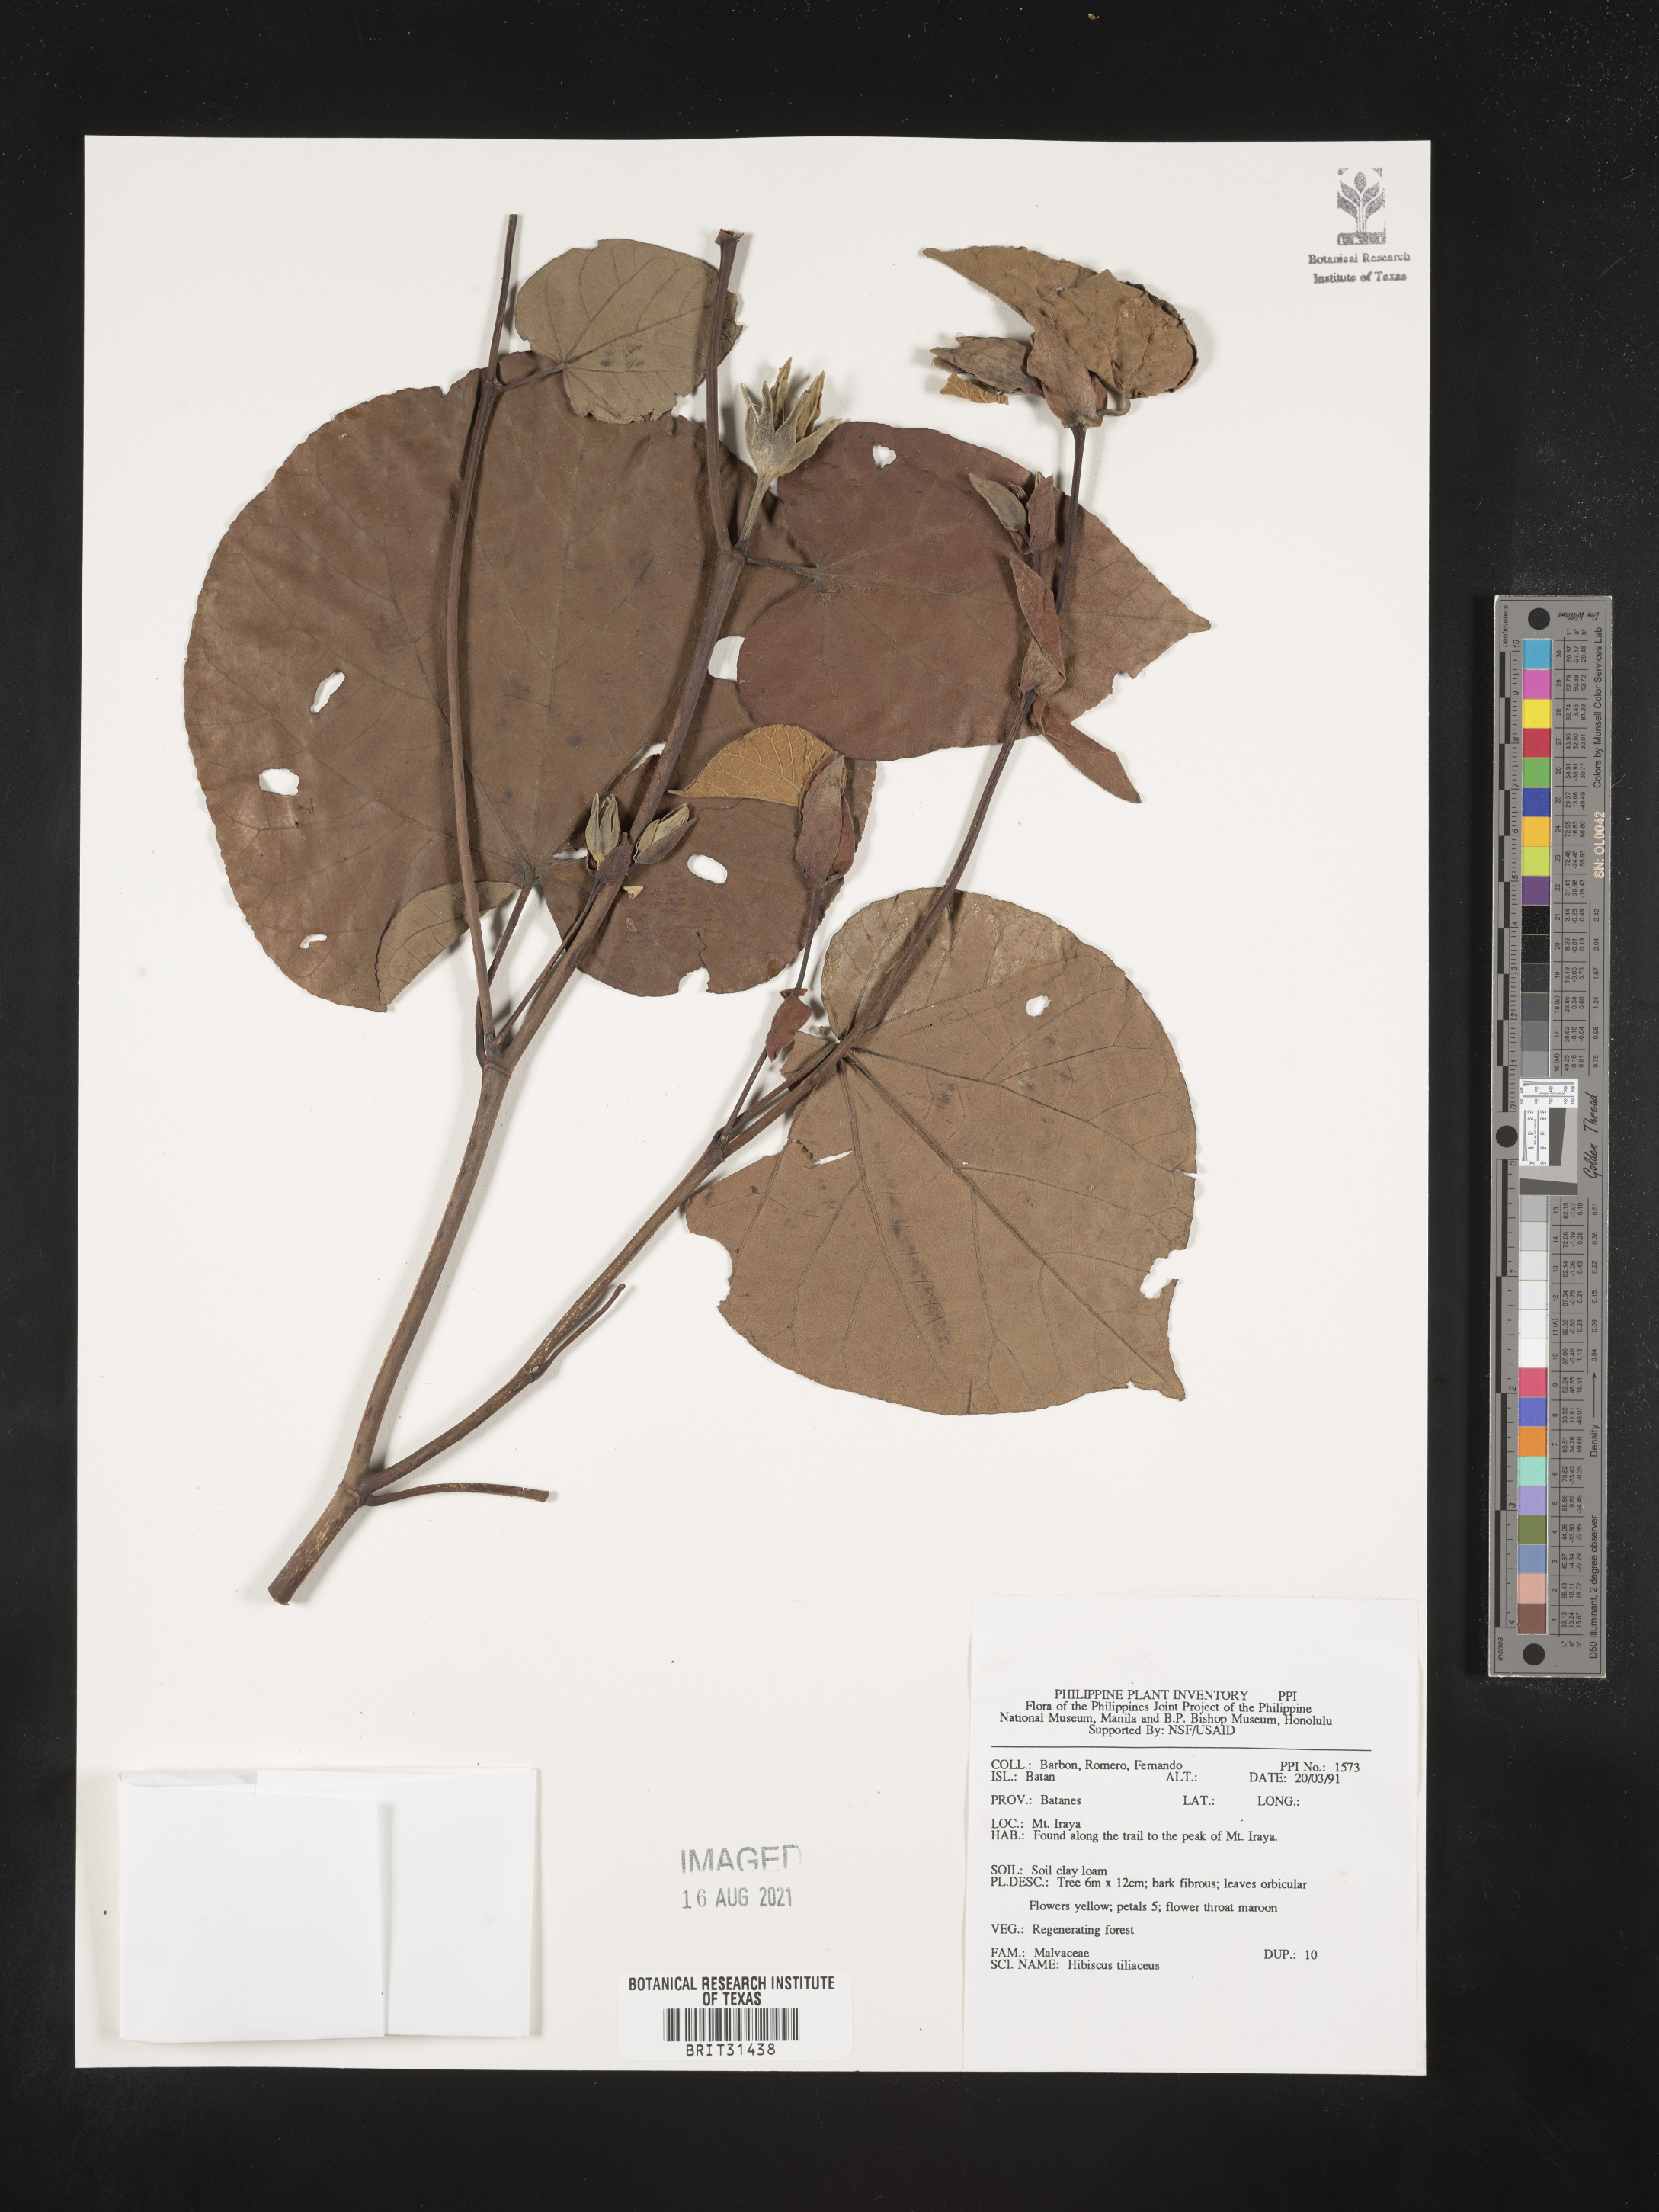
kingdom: Plantae
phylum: Tracheophyta
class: Magnoliopsida
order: Malvales
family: Malvaceae
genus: Talipariti
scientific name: Talipariti tiliaceum
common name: Sea hibiscus
